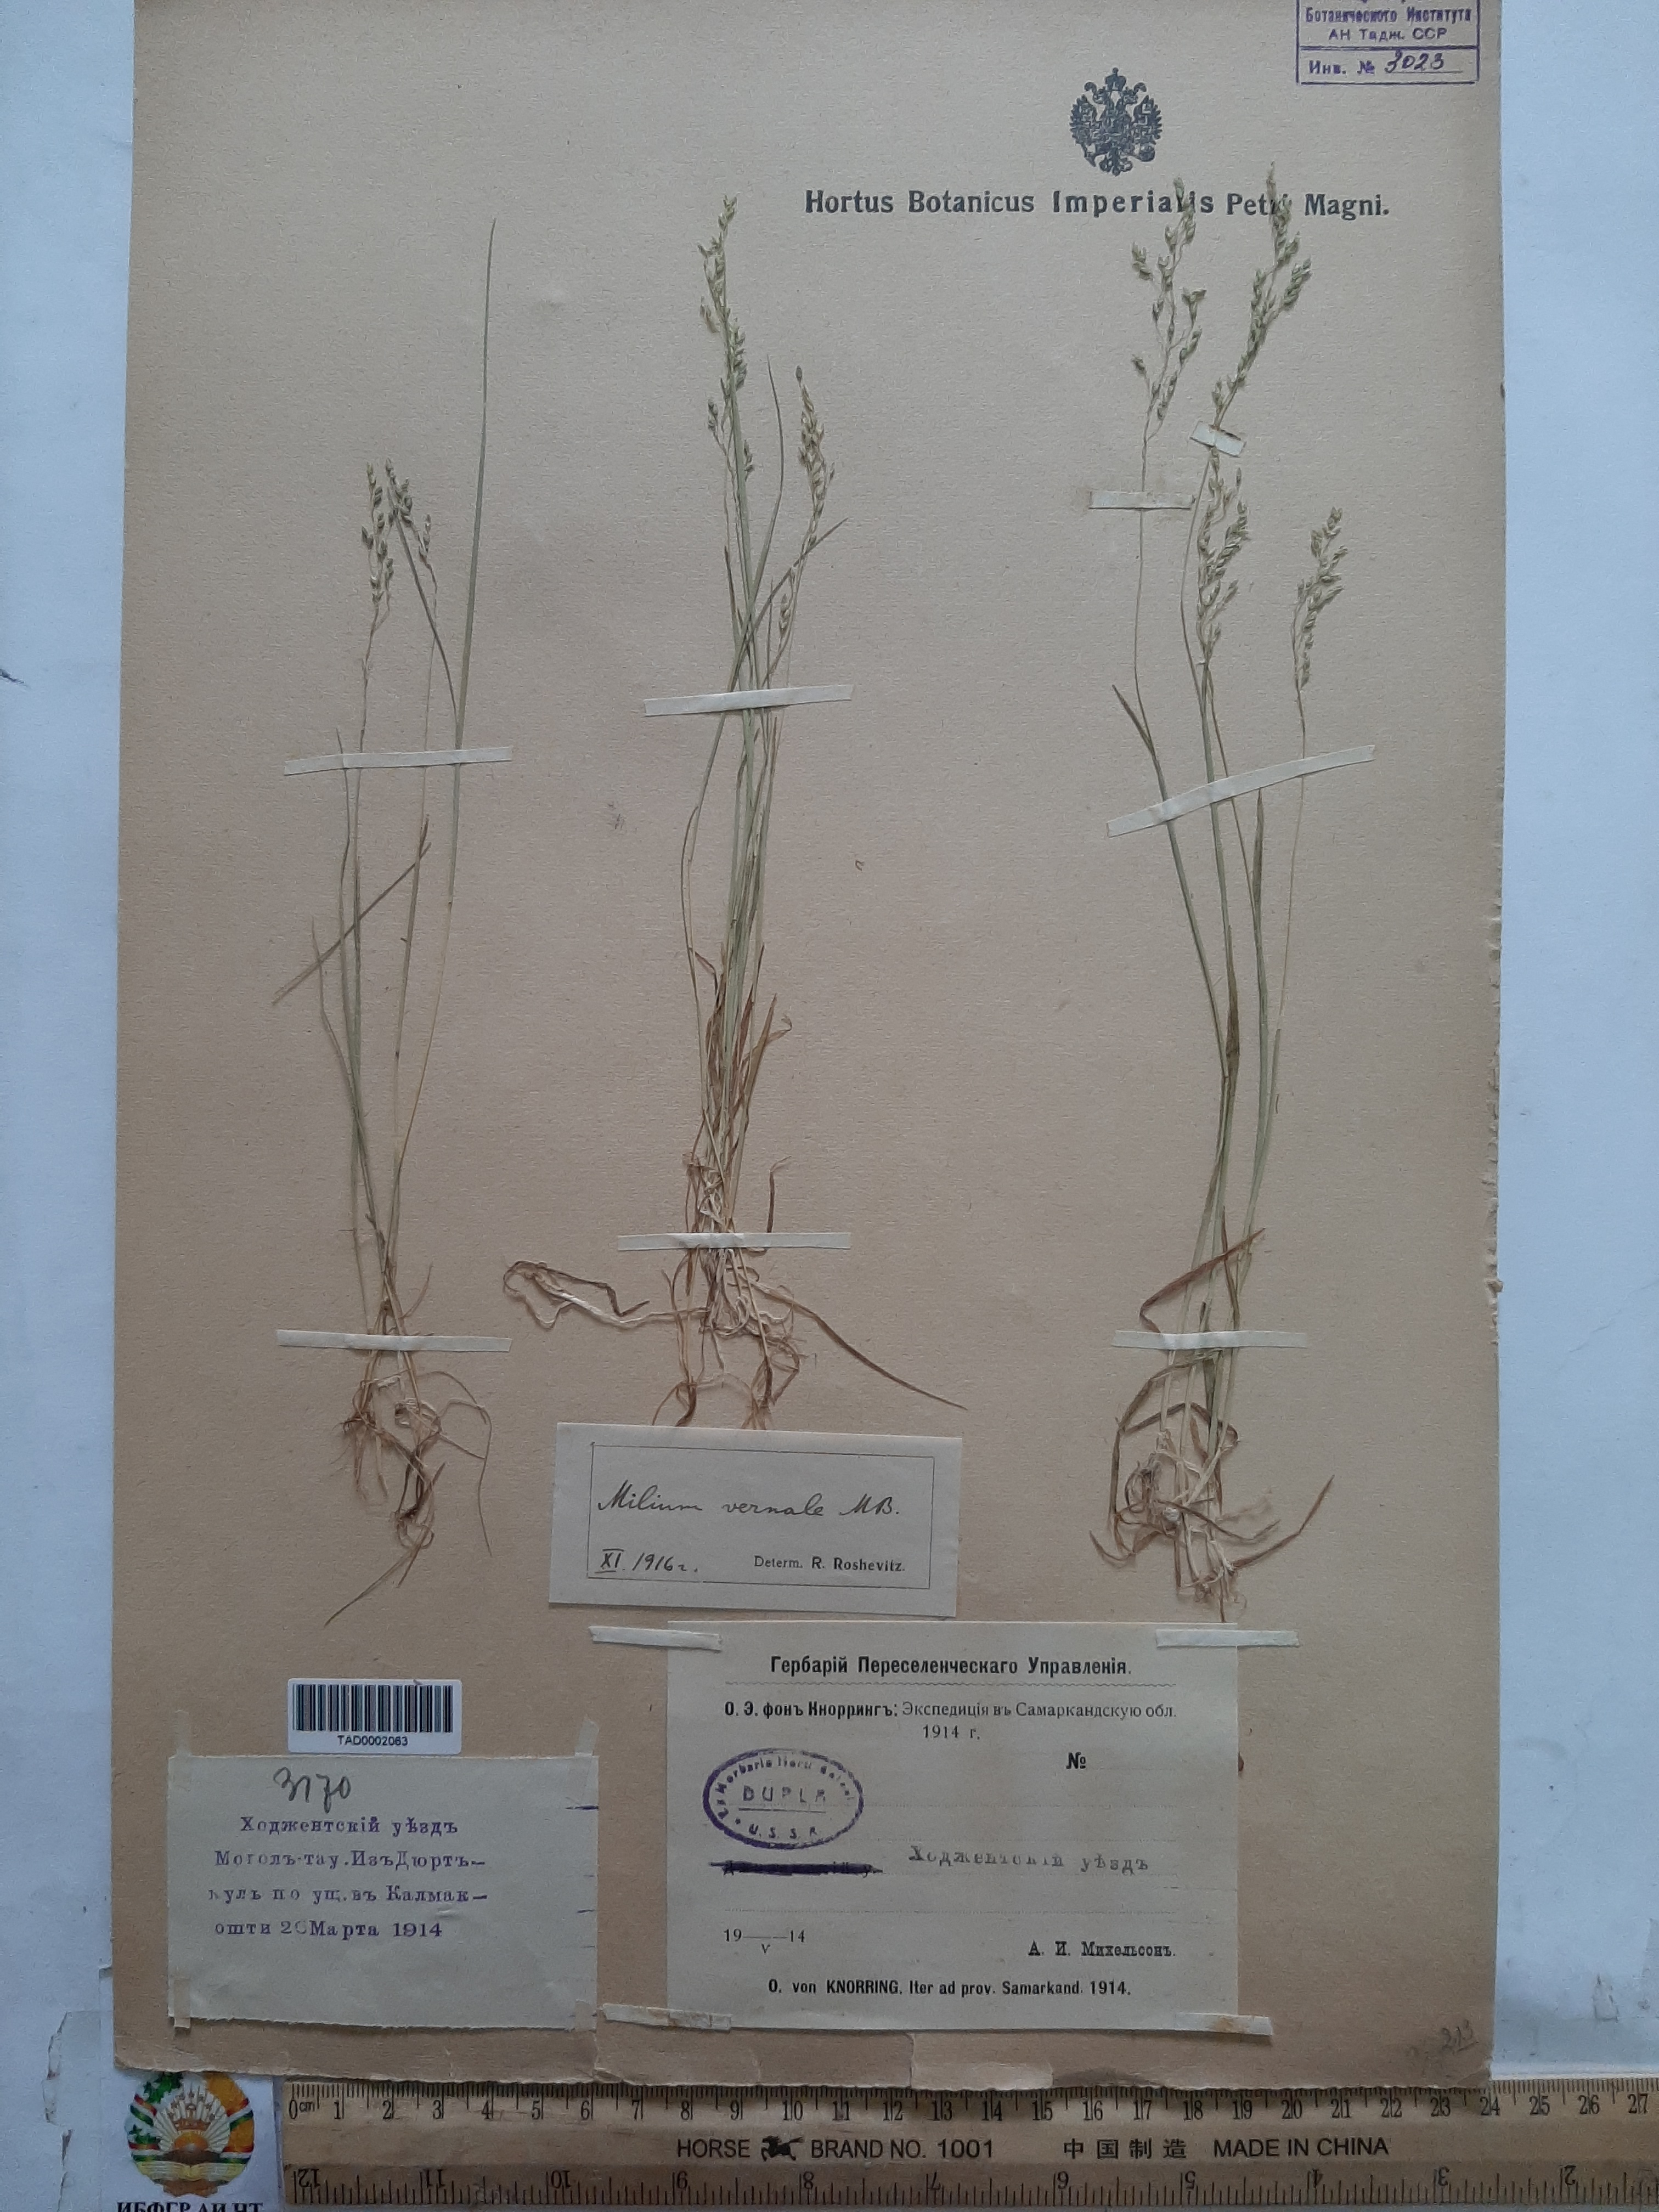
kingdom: Plantae
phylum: Tracheophyta
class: Liliopsida
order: Poales
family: Poaceae
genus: Milium
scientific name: Milium vernale
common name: Early millet
